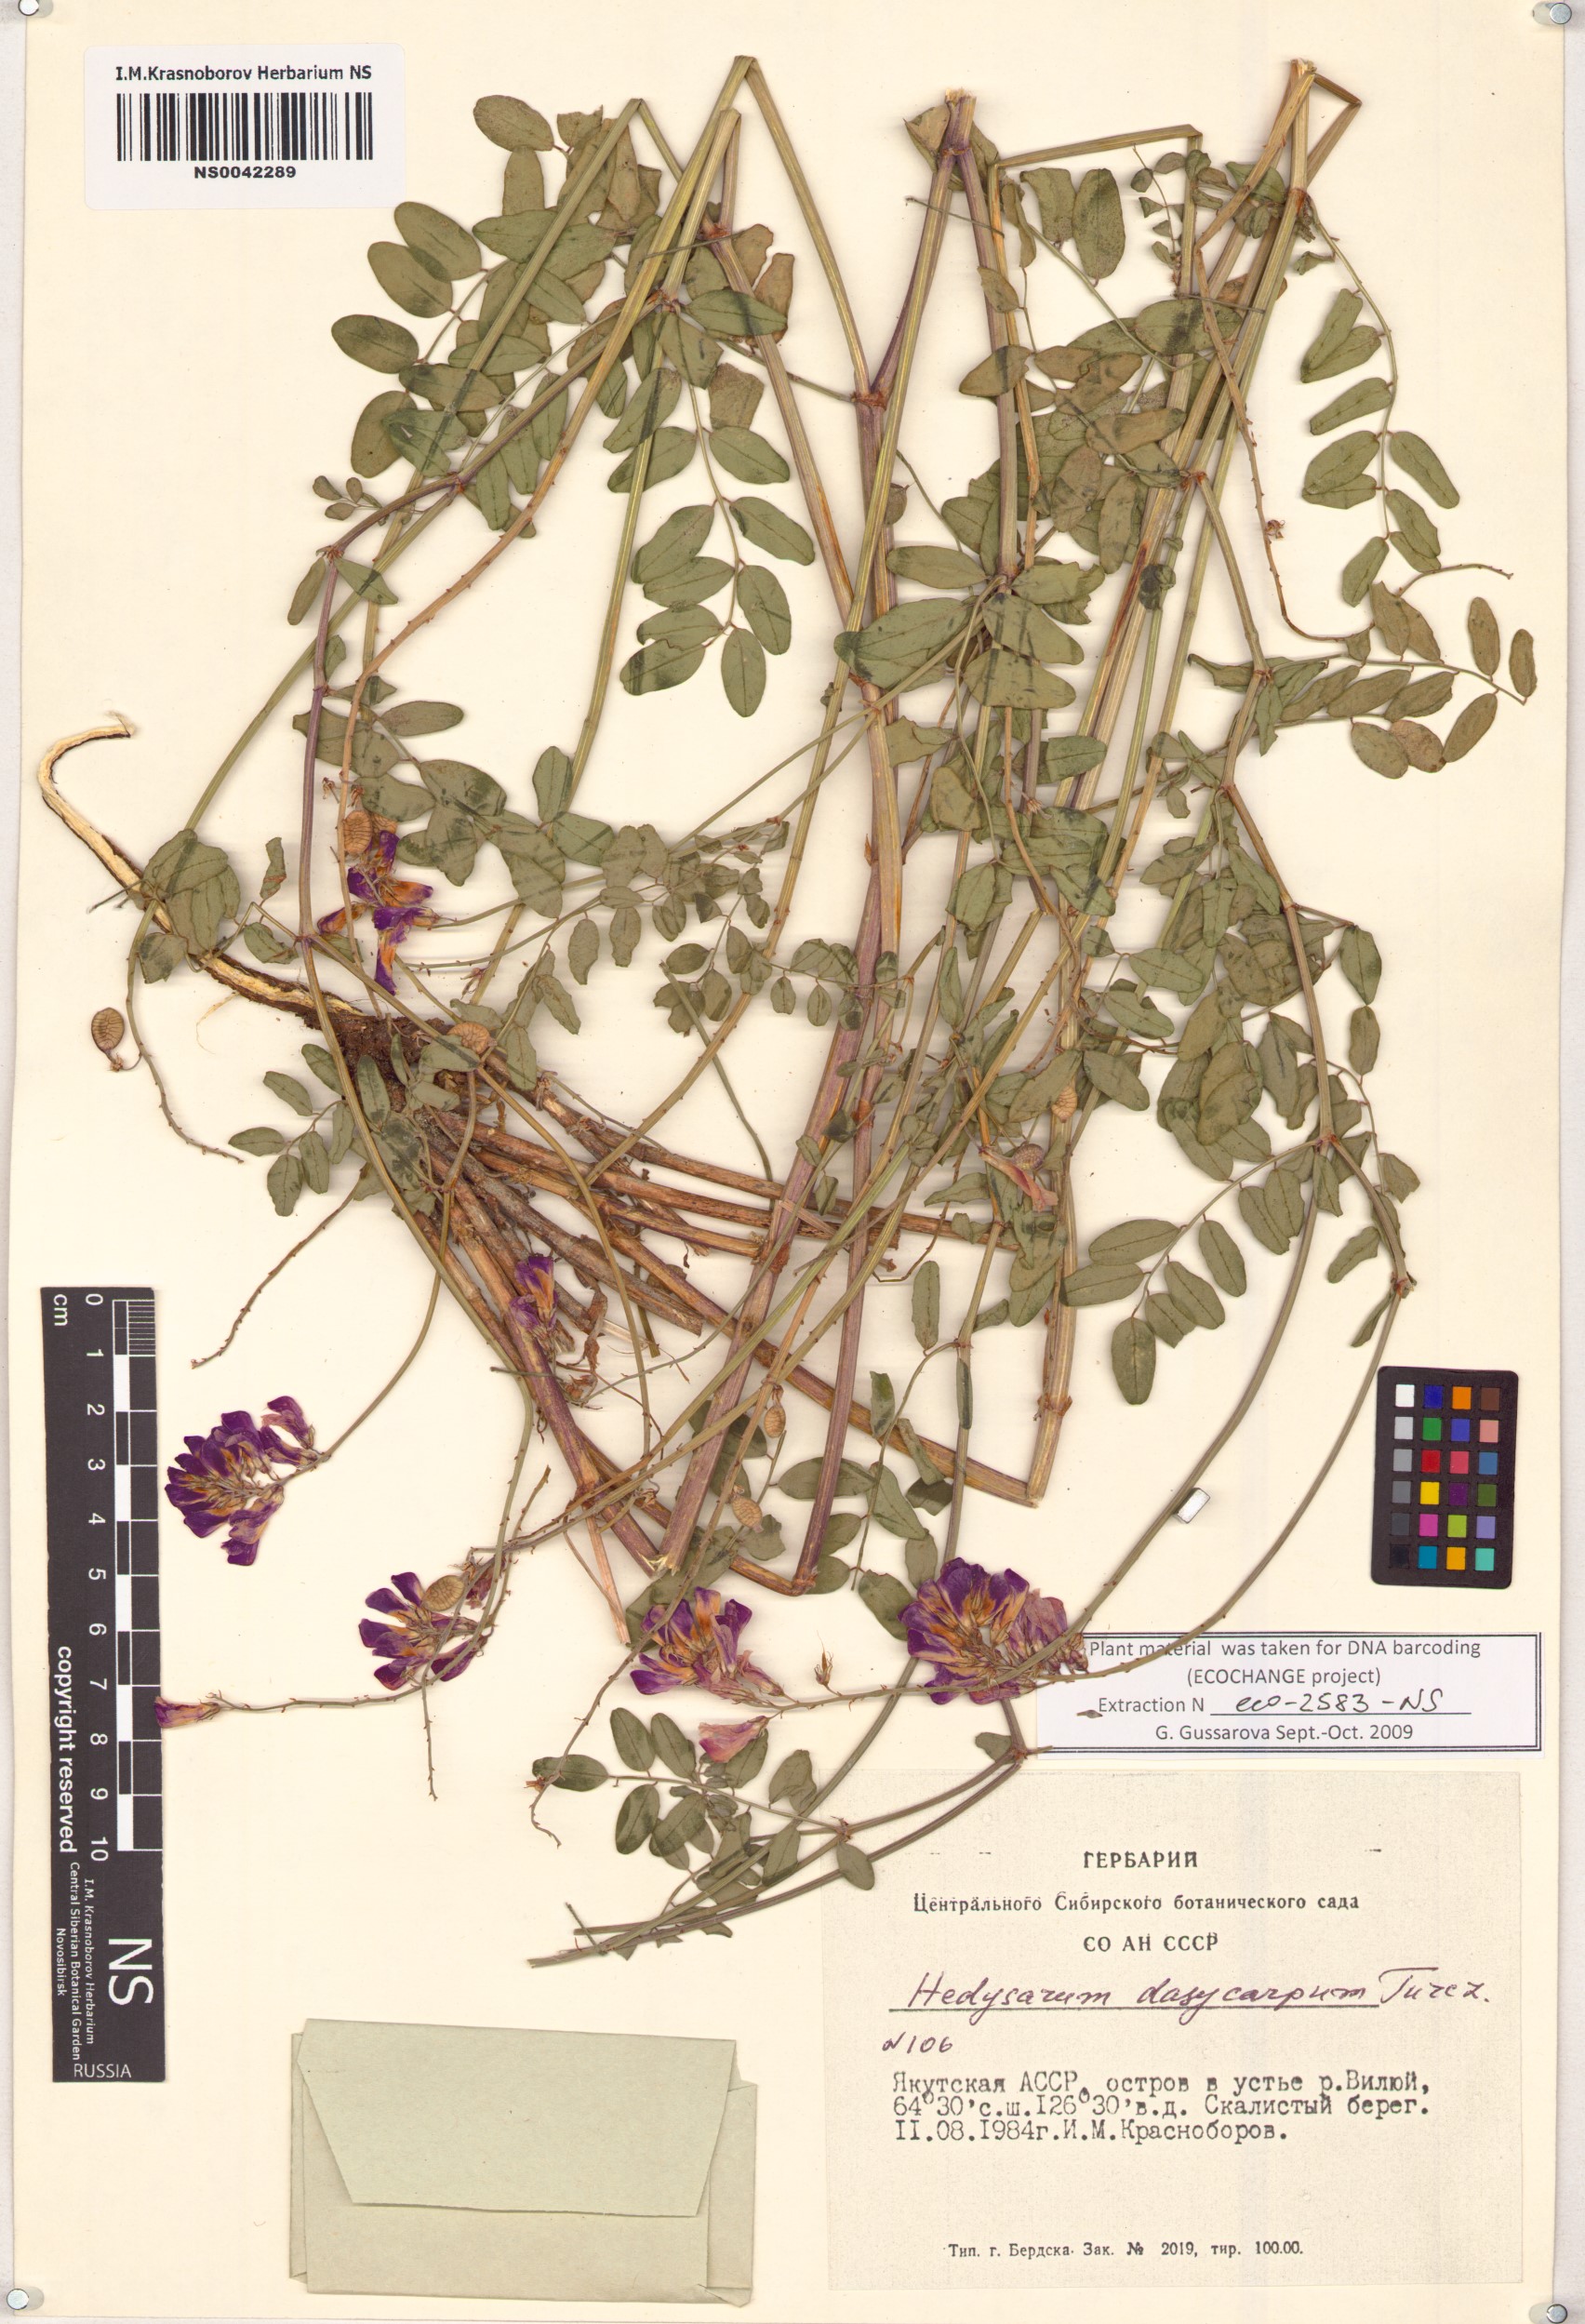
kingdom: Plantae
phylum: Tracheophyta
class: Magnoliopsida
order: Fabales
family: Fabaceae
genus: Hedysarum
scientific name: Hedysarum dasycarpum
